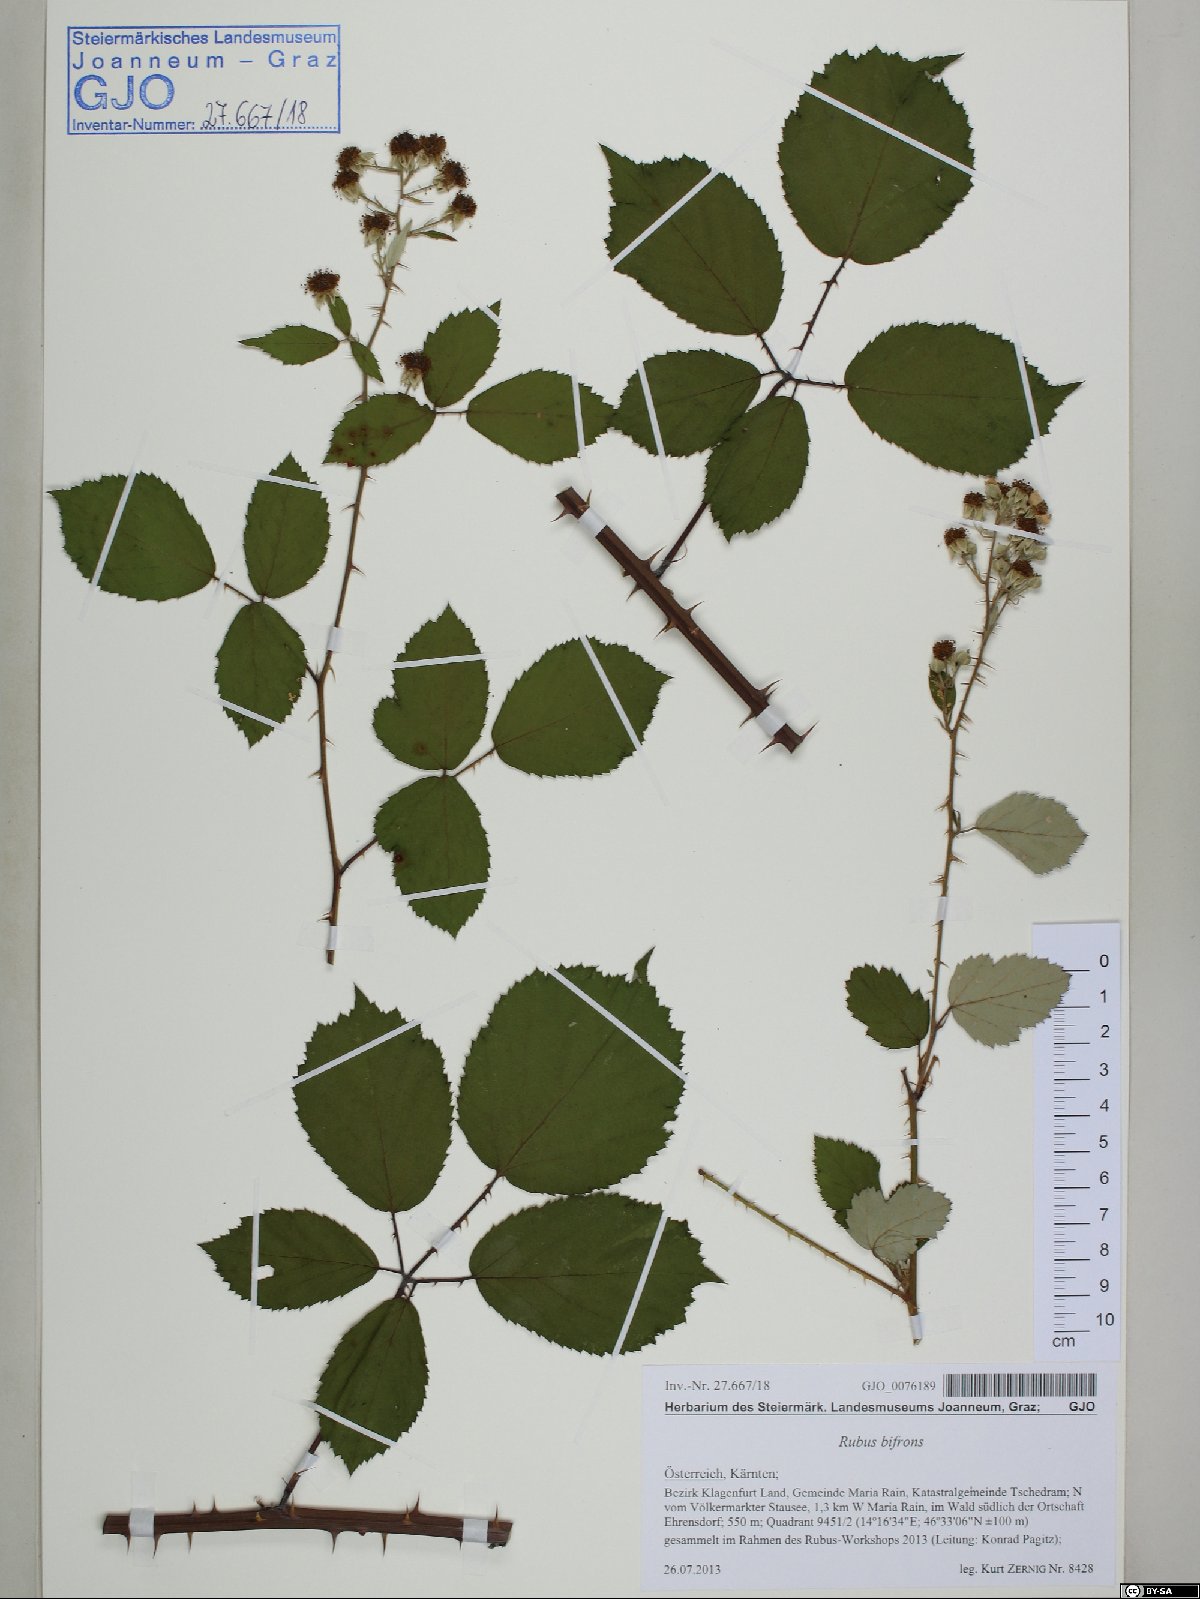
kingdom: Plantae
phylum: Tracheophyta
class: Magnoliopsida
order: Rosales
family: Rosaceae
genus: Rubus
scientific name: Rubus bifrons
